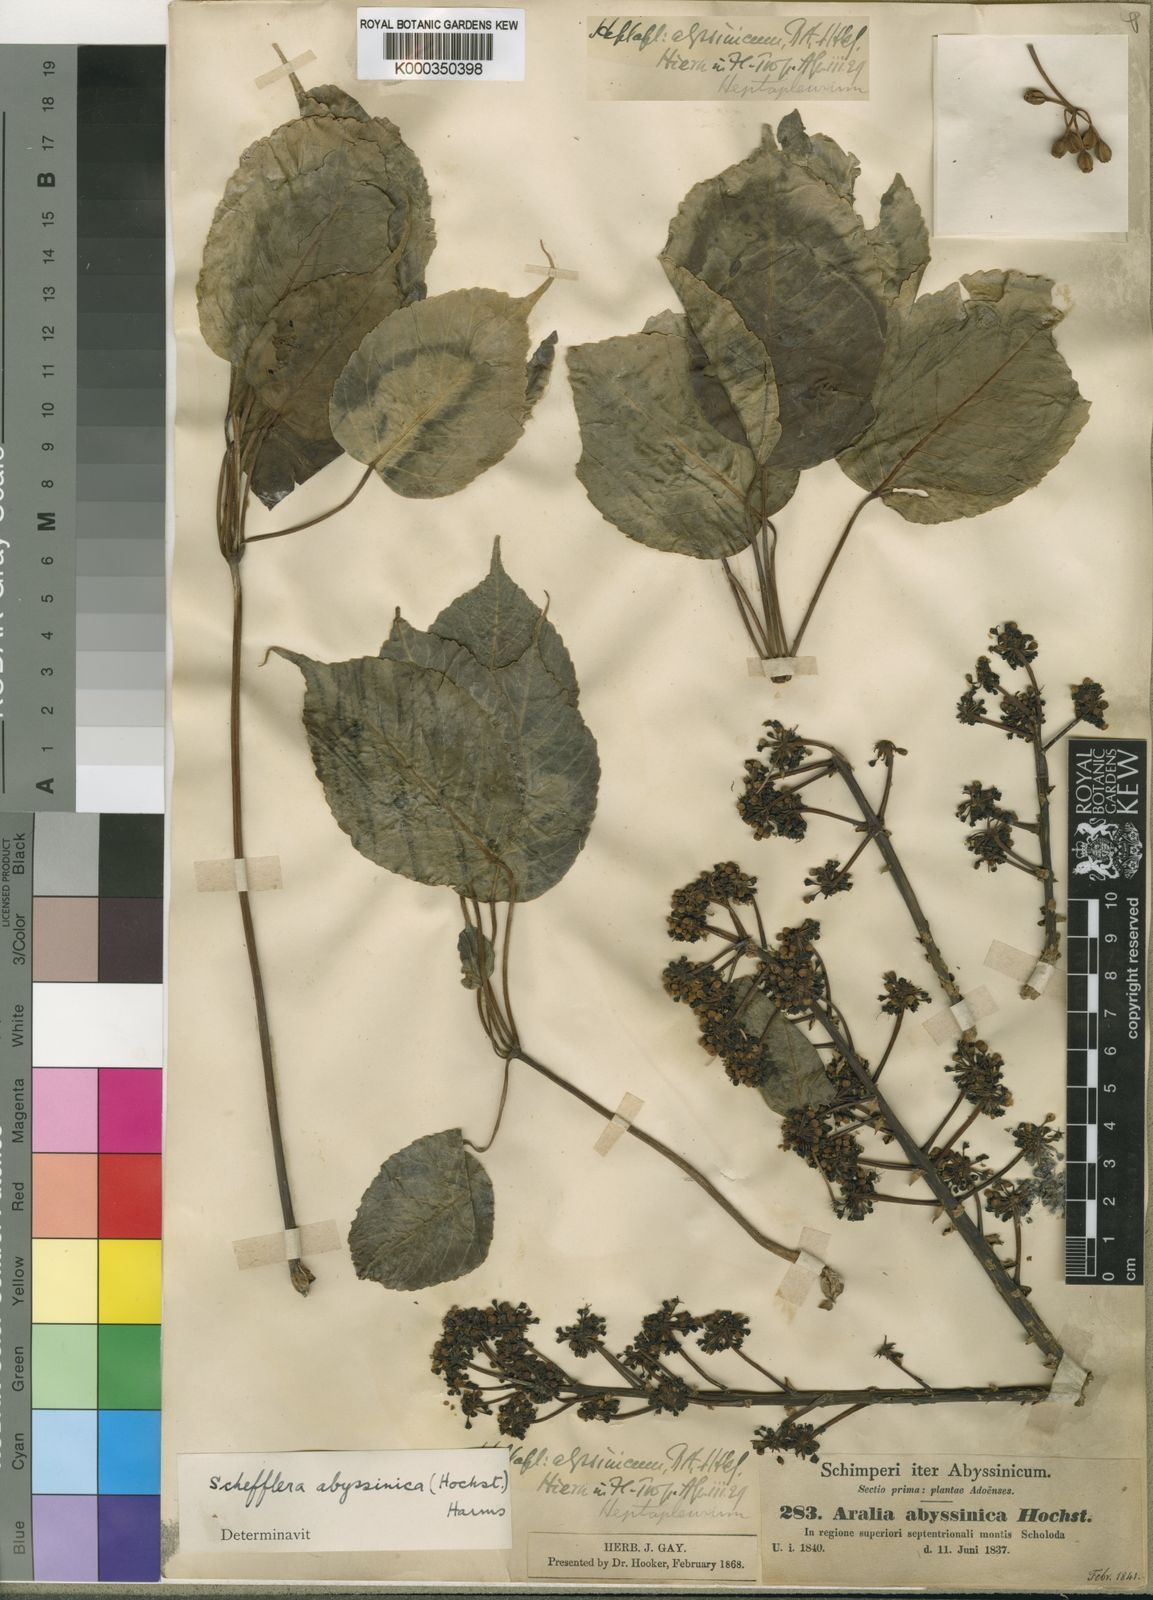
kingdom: Plantae
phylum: Tracheophyta
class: Magnoliopsida
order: Apiales
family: Araliaceae
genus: Astropanax
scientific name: Astropanax abyssinicum
